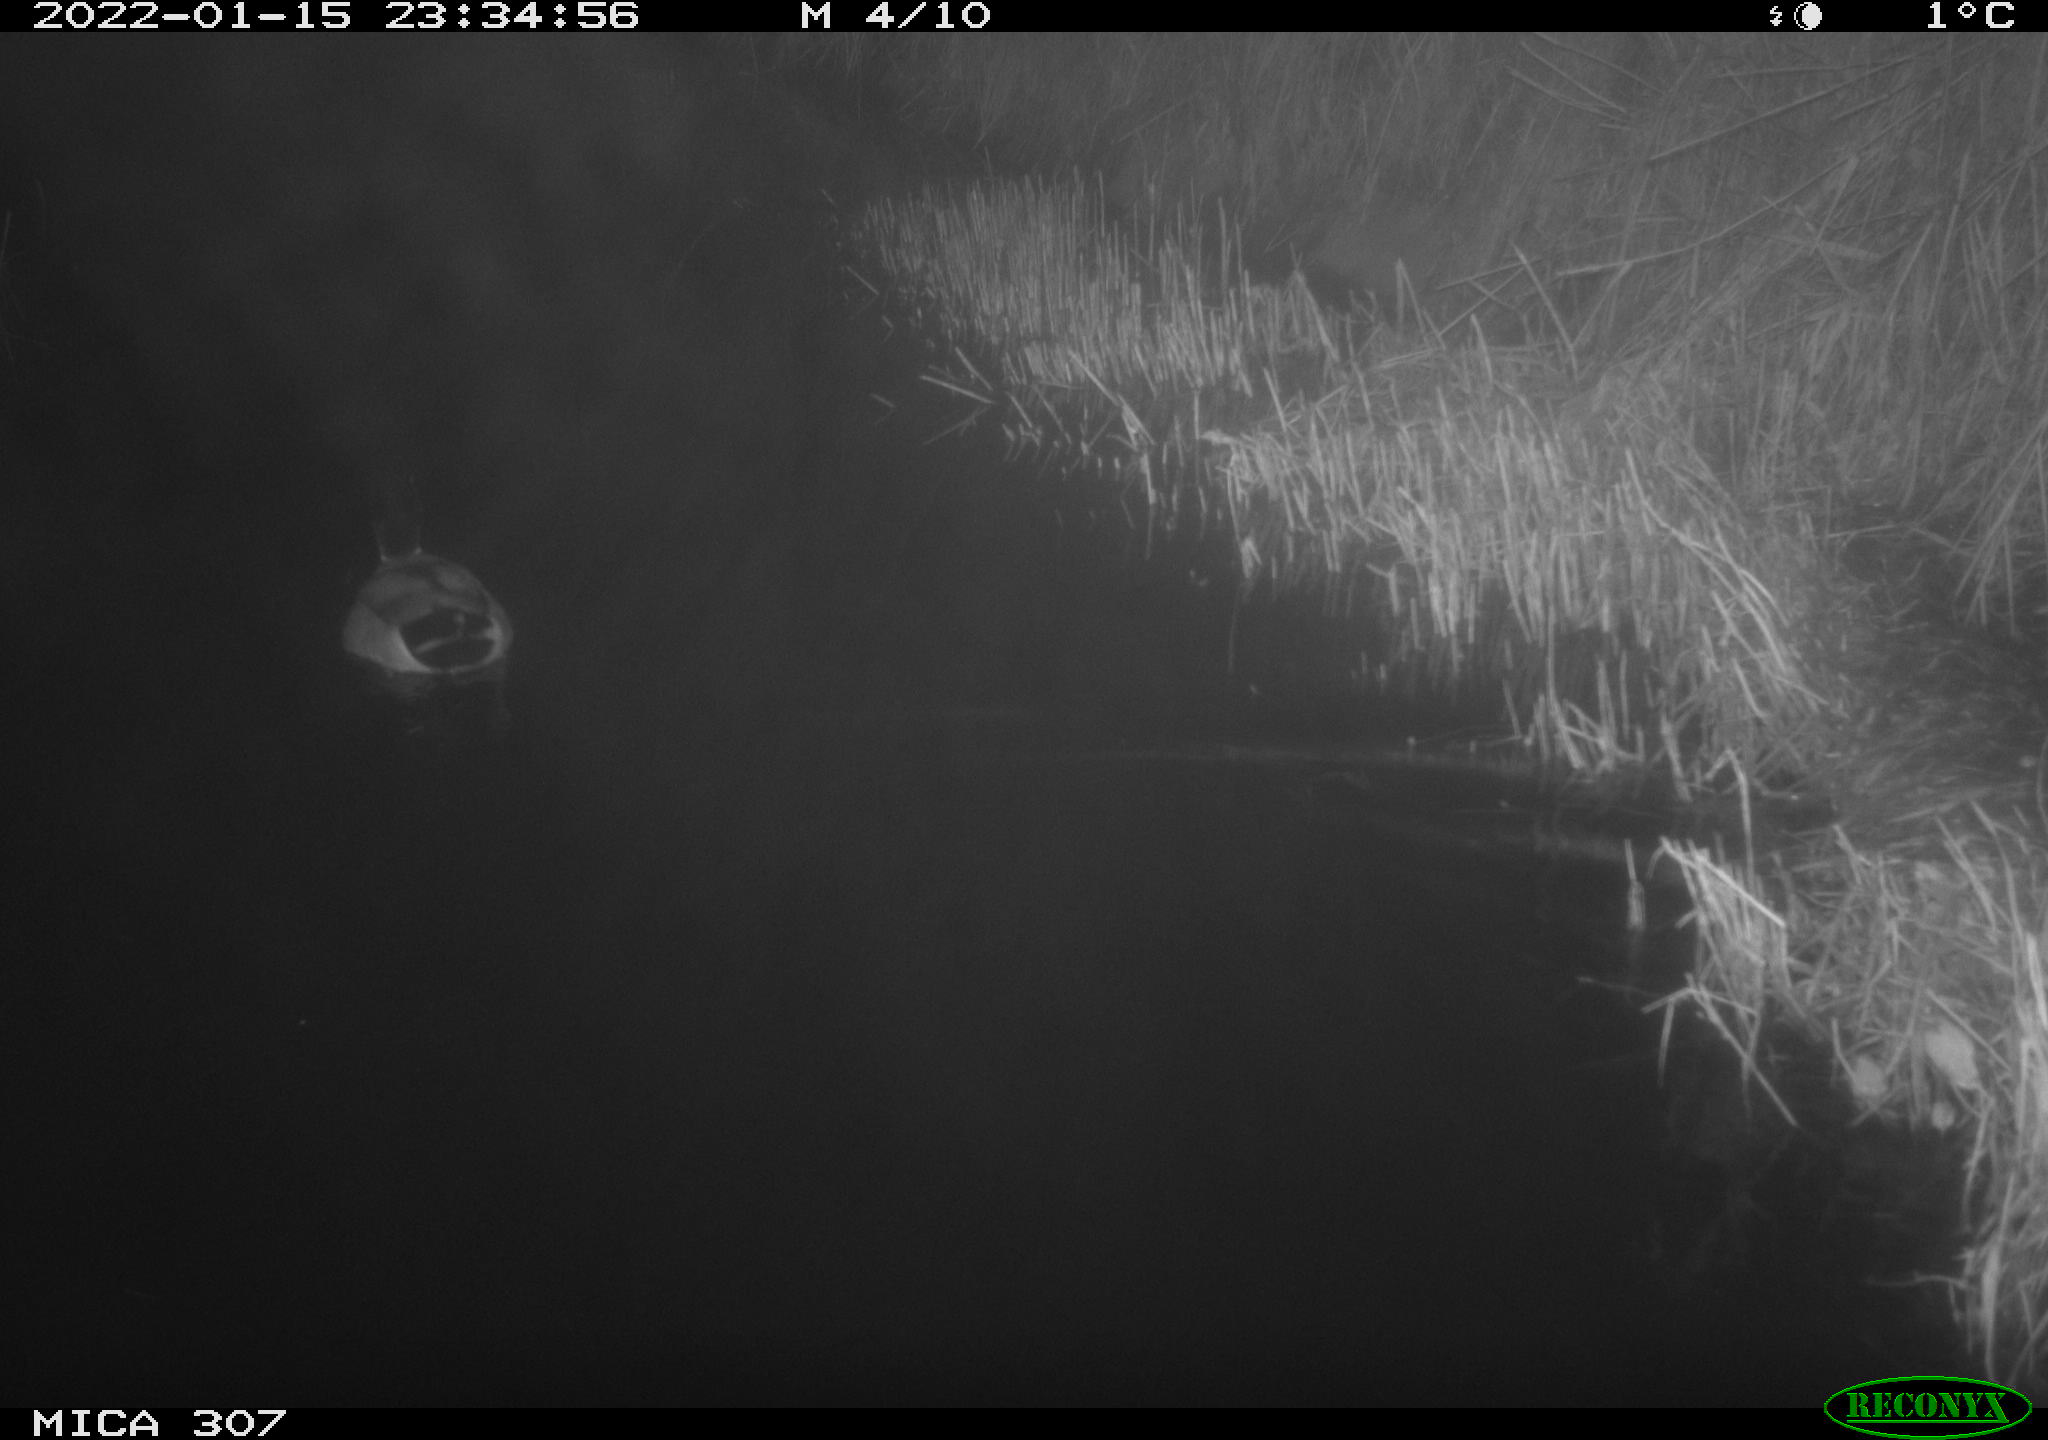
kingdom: Animalia
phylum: Chordata
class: Aves
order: Anseriformes
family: Anatidae
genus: Anas
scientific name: Anas
